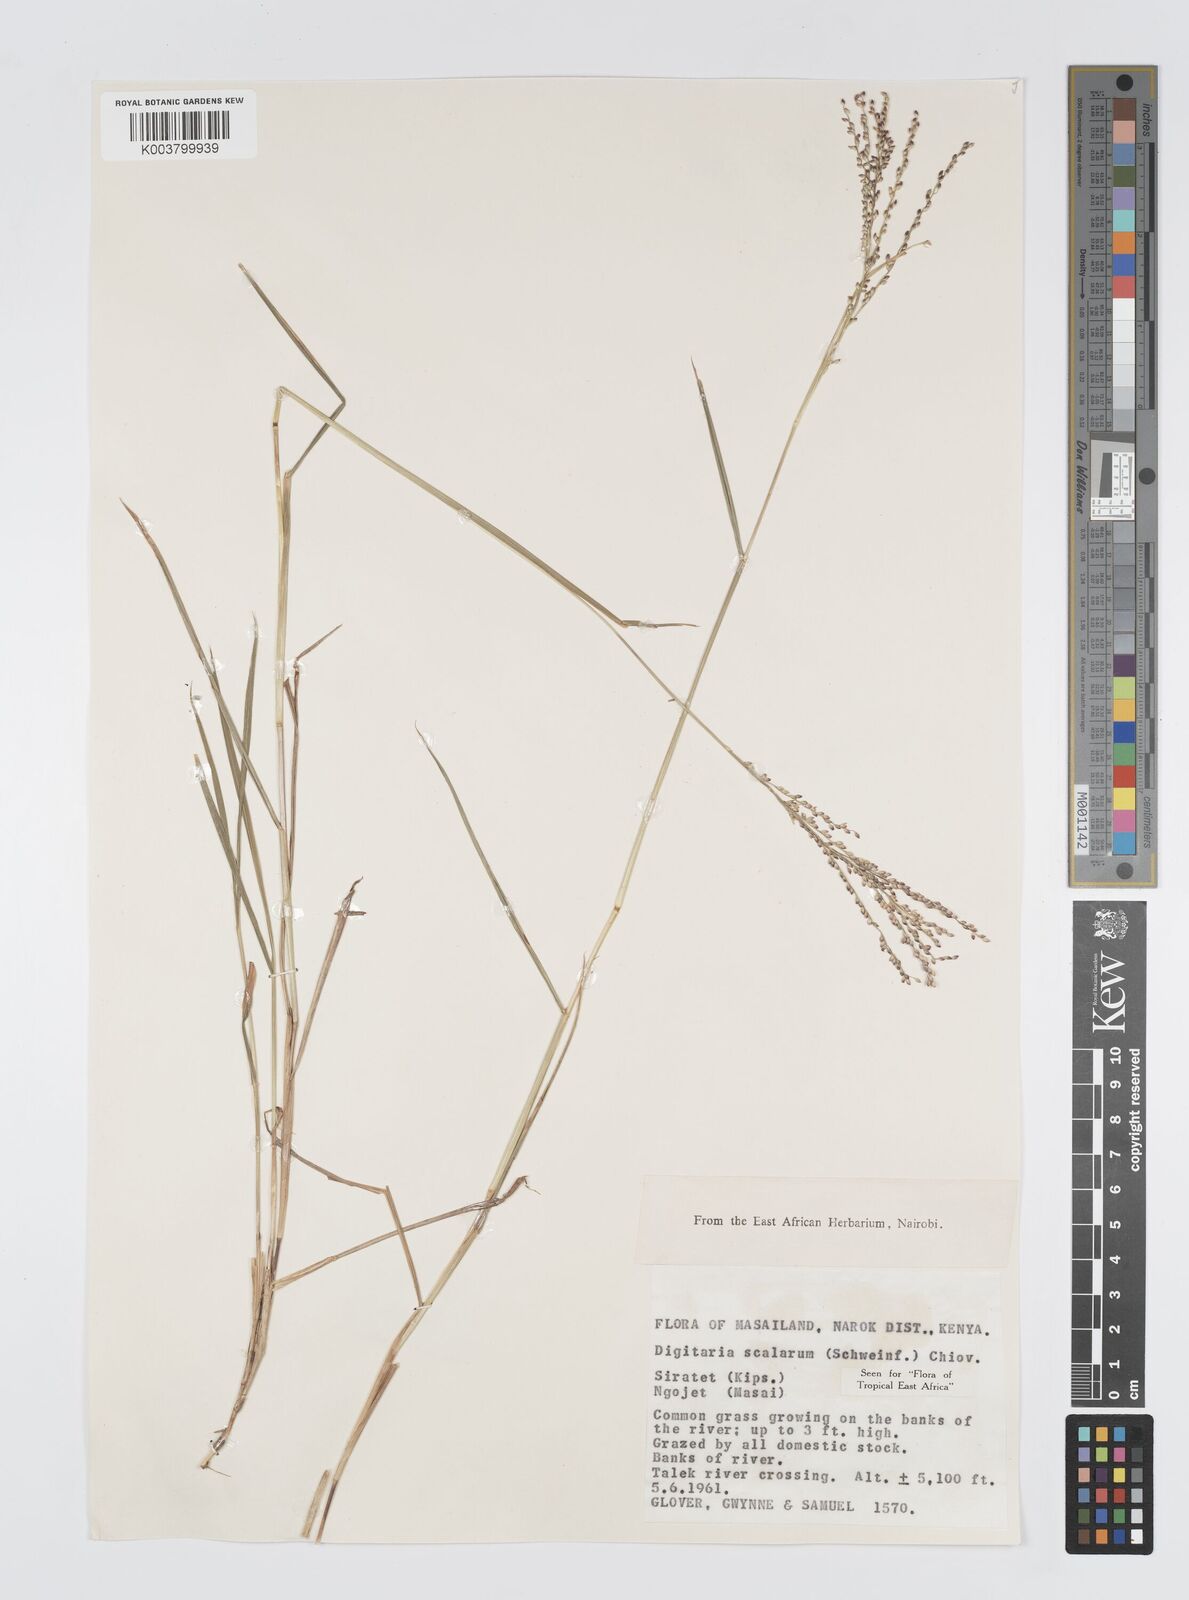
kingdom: Plantae
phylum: Tracheophyta
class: Liliopsida
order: Poales
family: Poaceae
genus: Digitaria
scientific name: Digitaria abyssinica
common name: African couchgrass
